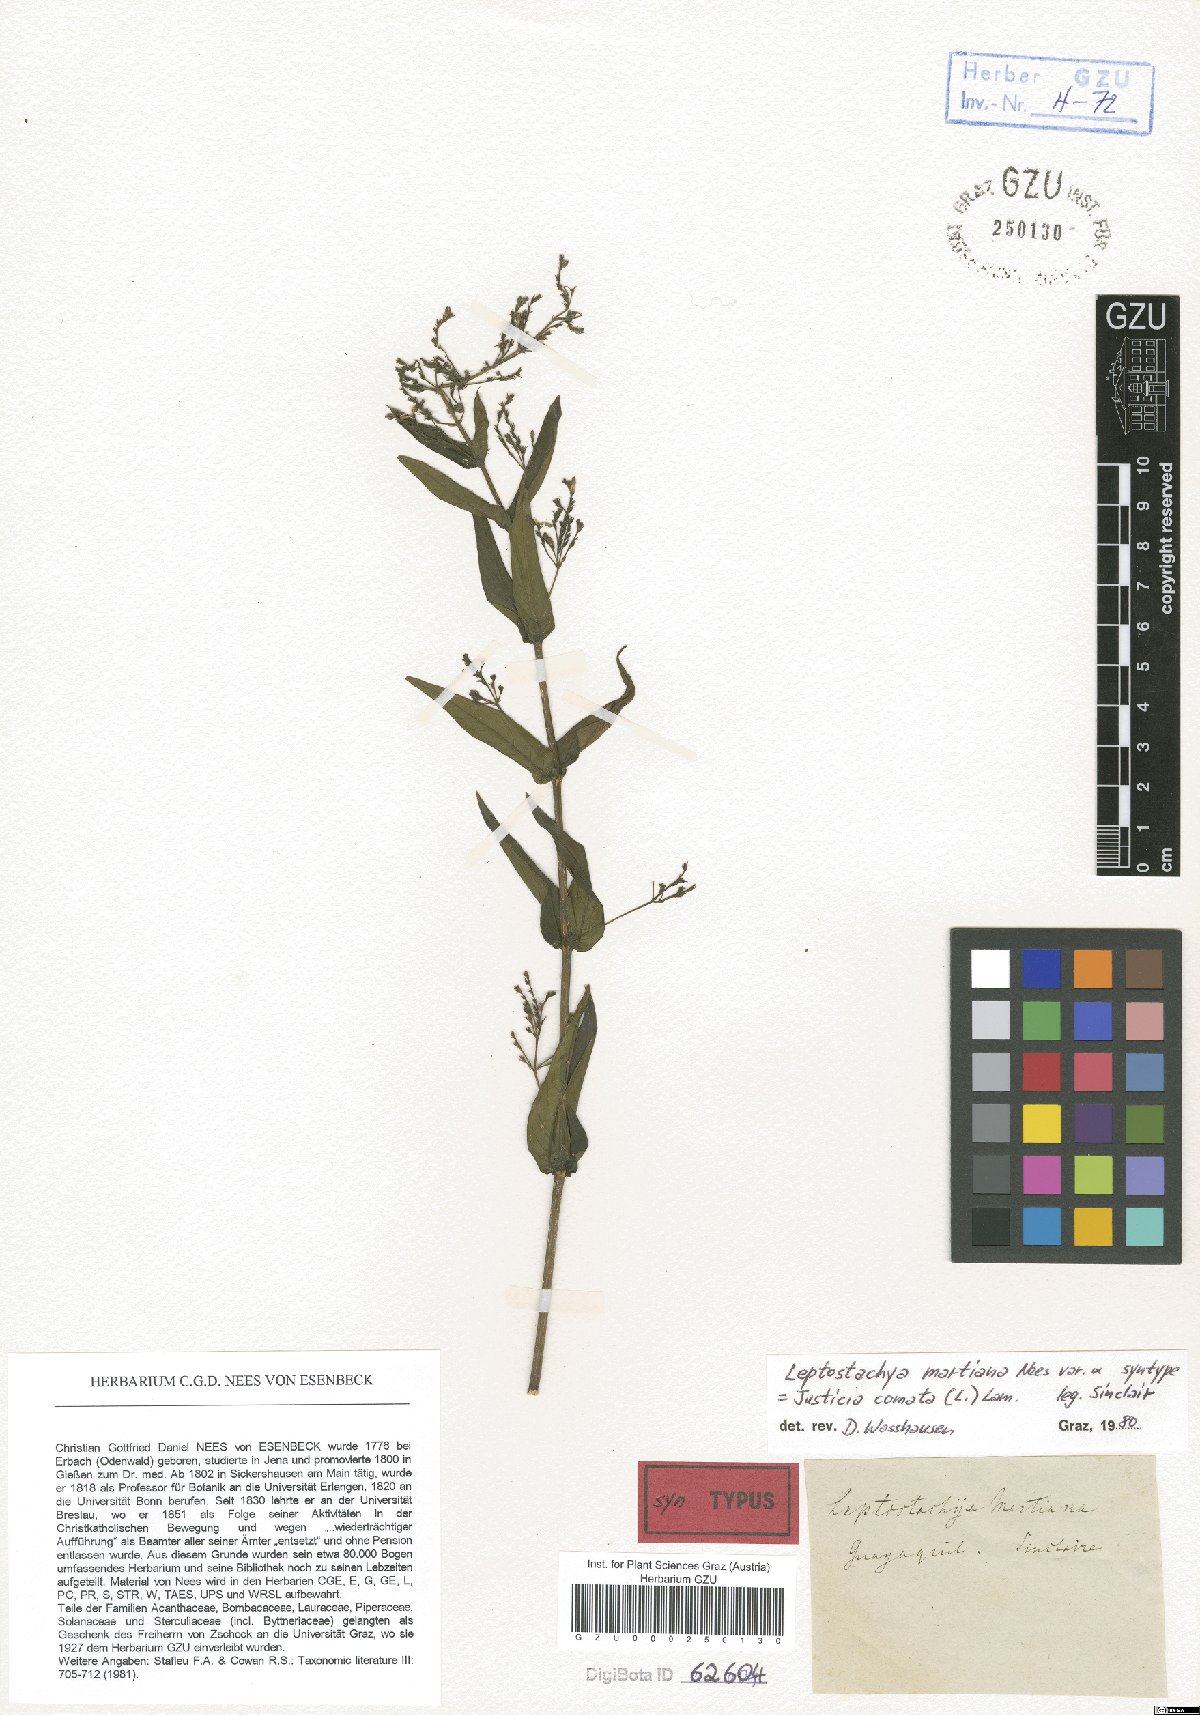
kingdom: Plantae
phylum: Tracheophyta
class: Magnoliopsida
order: Lamiales
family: Acanthaceae
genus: Dianthera
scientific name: Dianthera comata
